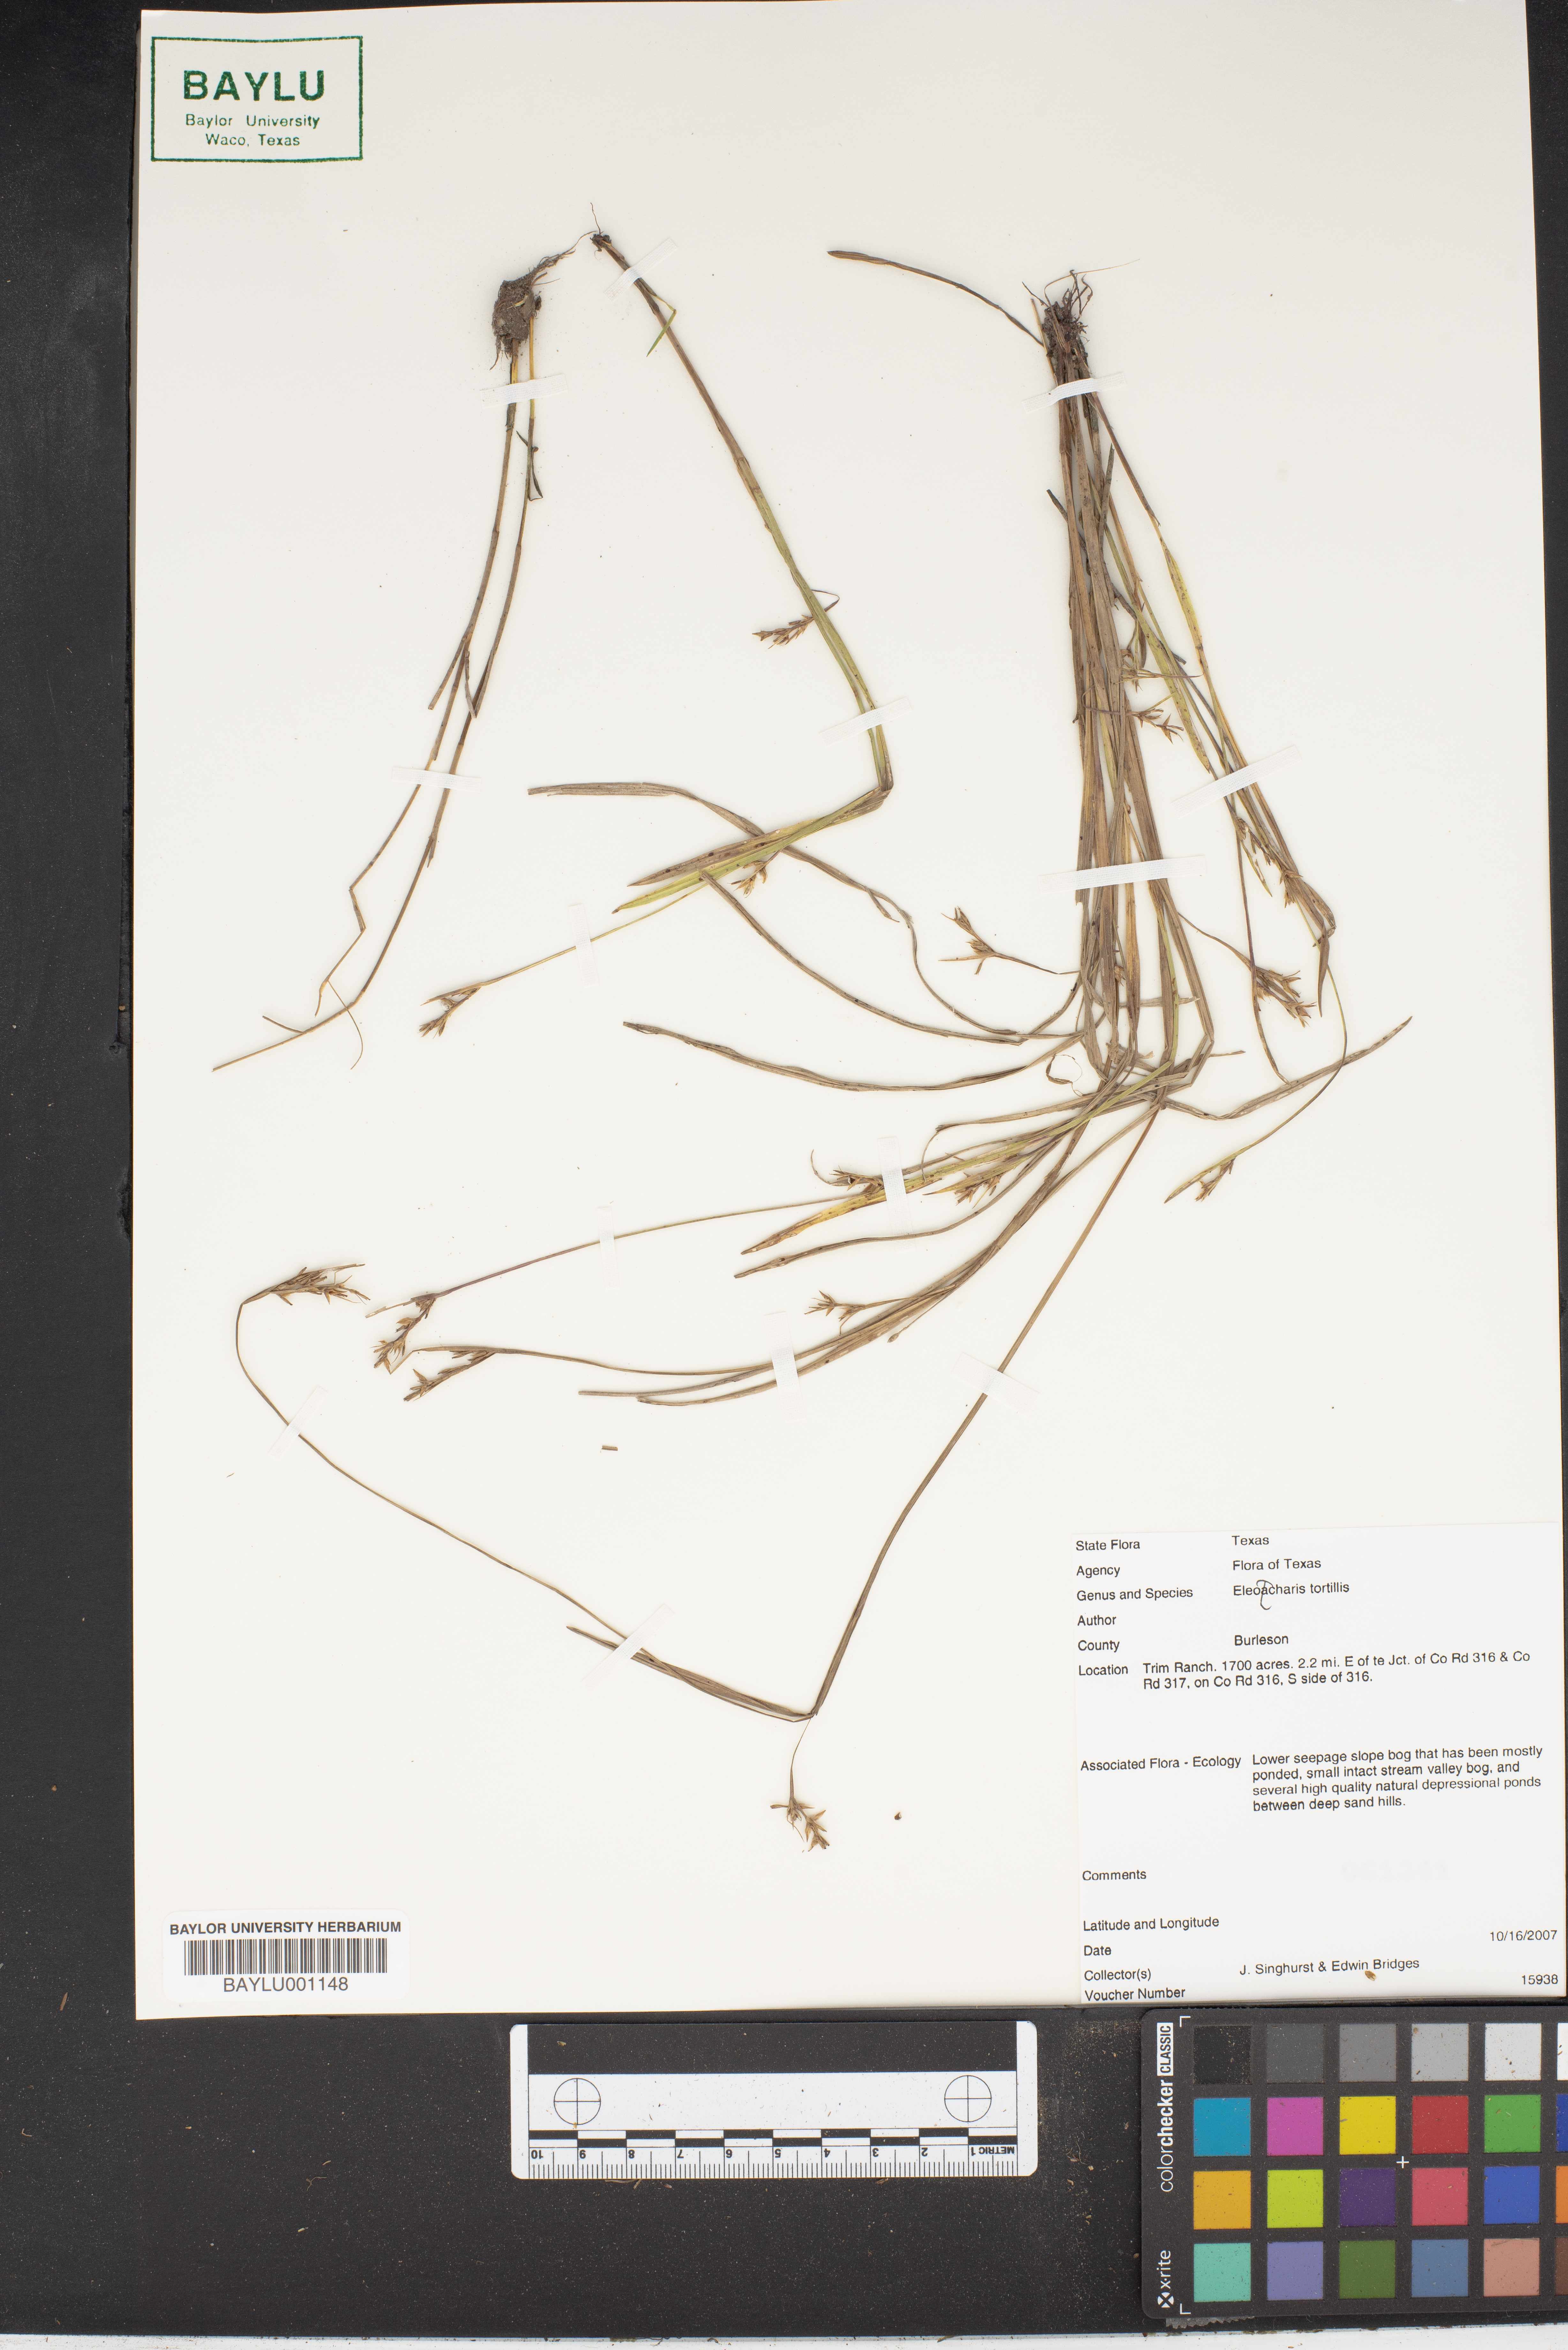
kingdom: Plantae
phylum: Tracheophyta
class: Liliopsida
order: Poales
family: Cyperaceae
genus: Eleocharis
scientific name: Eleocharis tortilis
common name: Twisted spike sedge
